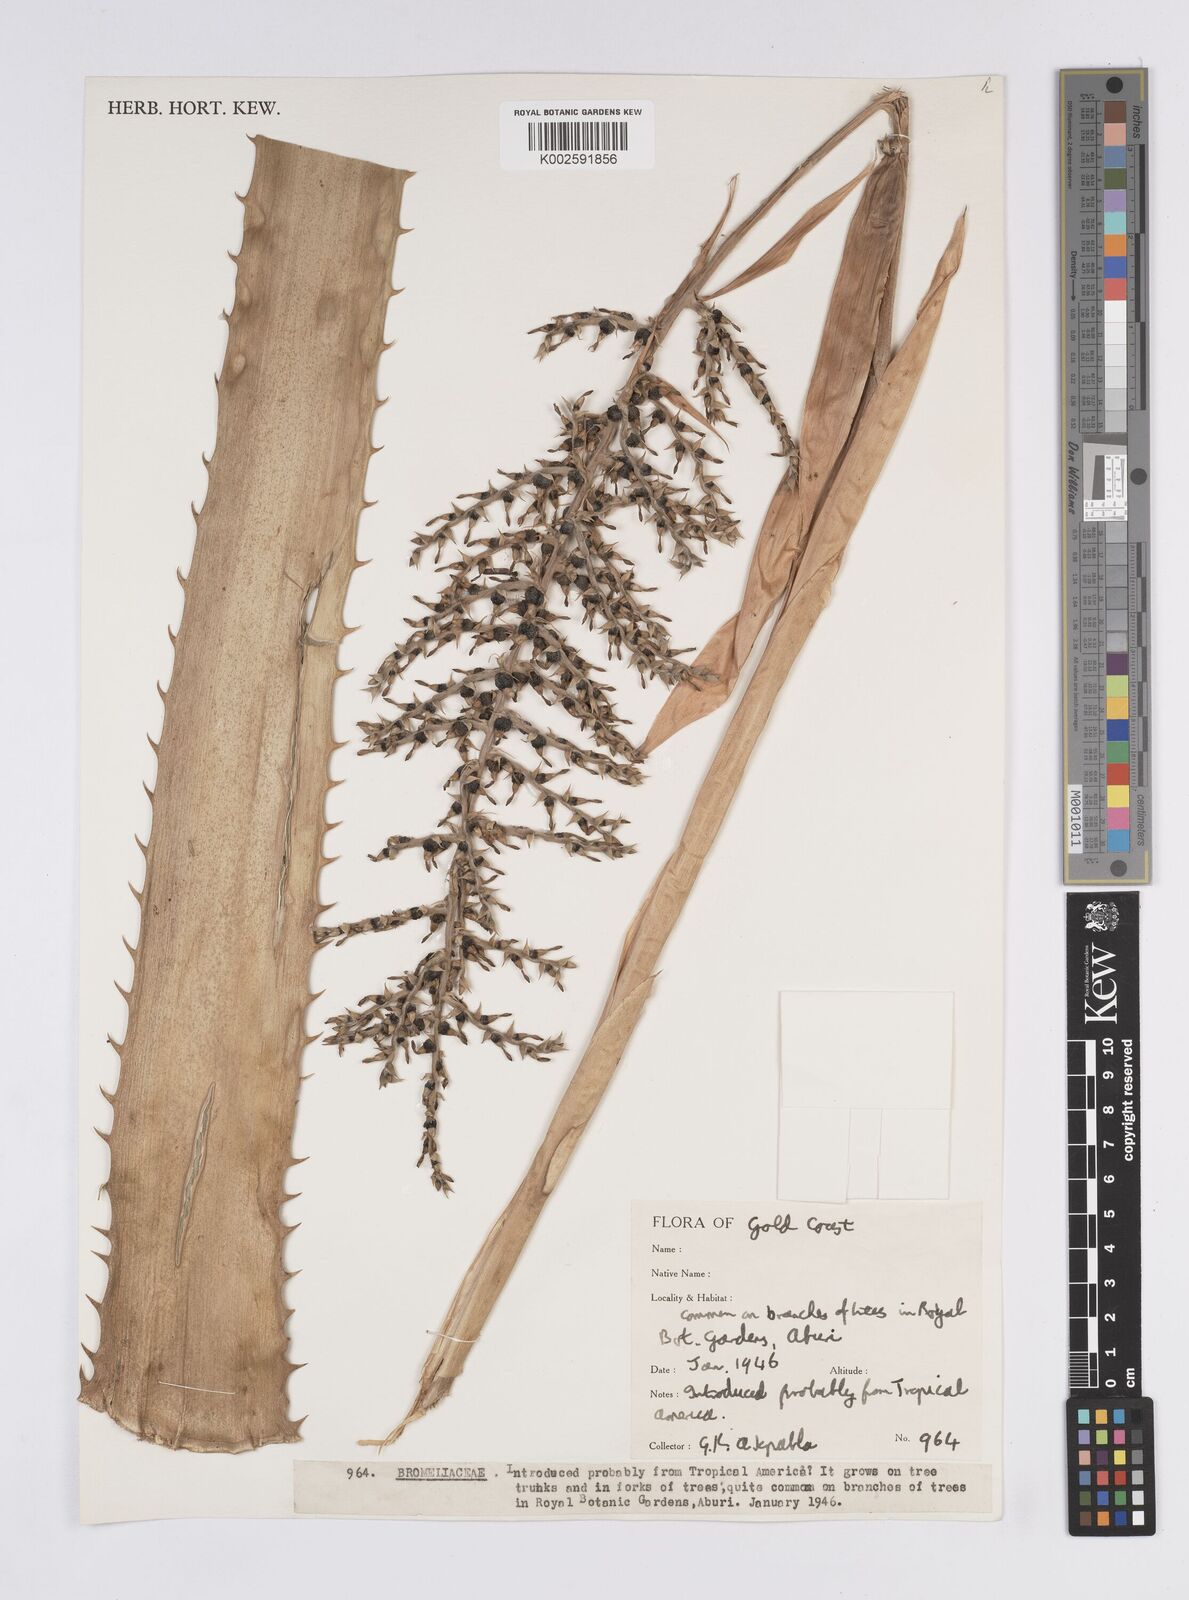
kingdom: Plantae
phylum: Tracheophyta
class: Liliopsida
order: Poales
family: Bromeliaceae
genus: Aechmea
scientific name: Aechmea
